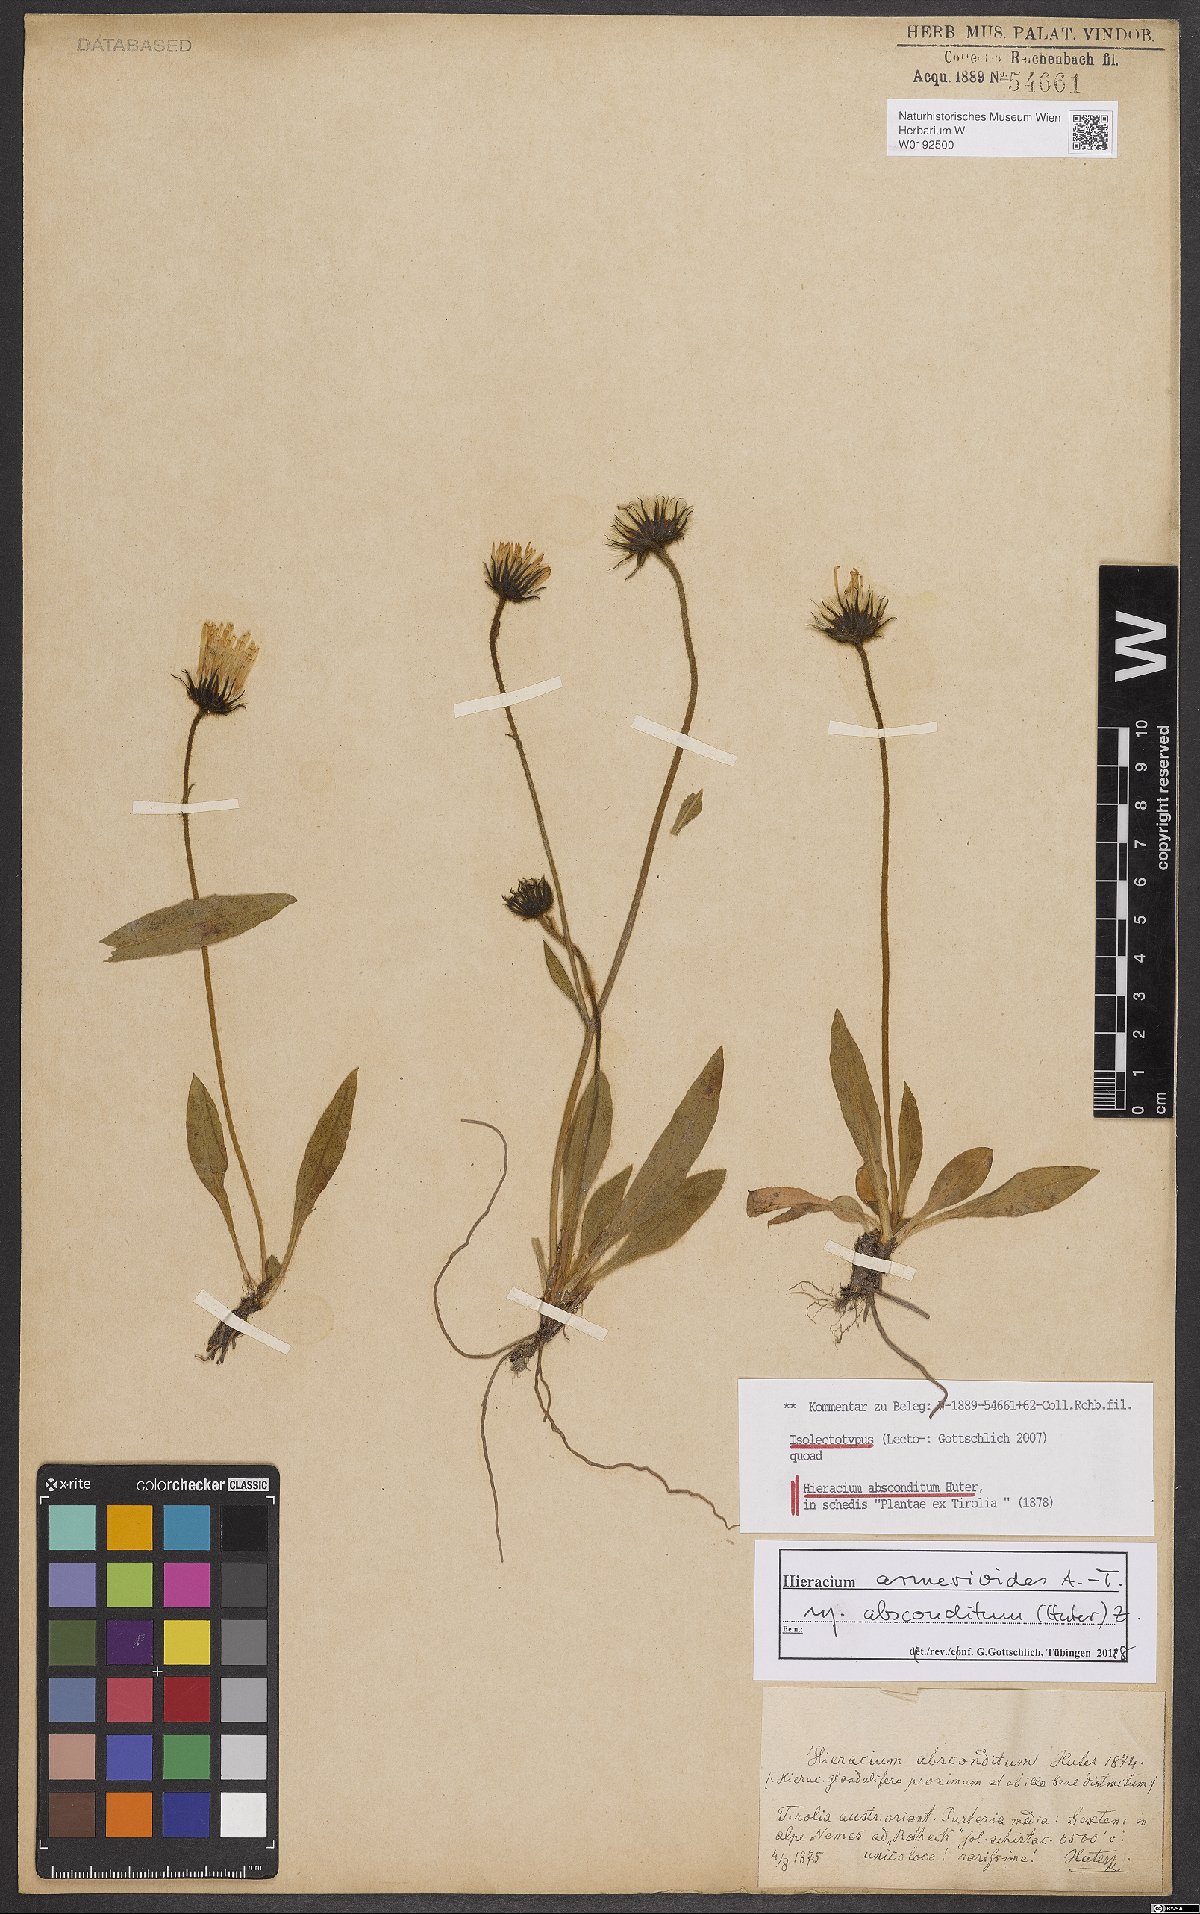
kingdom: Plantae
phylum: Tracheophyta
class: Magnoliopsida
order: Asterales
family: Asteraceae
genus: Hieracium
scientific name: Hieracium armerioides
